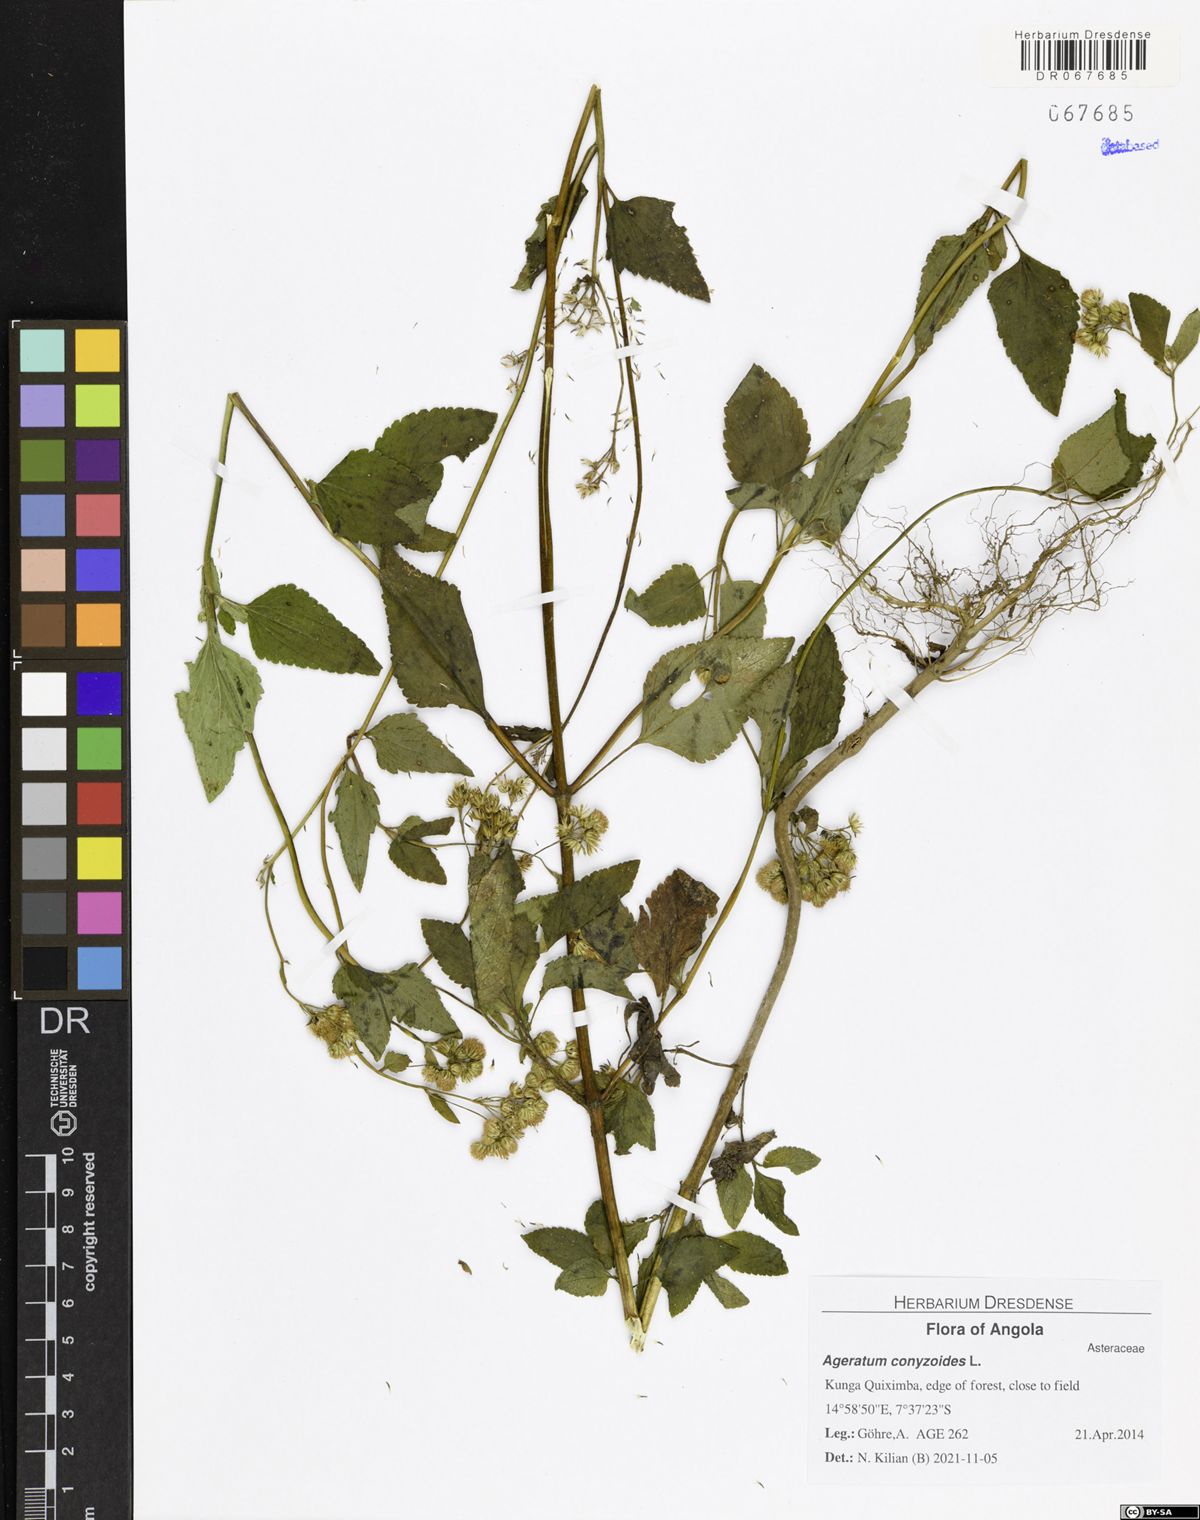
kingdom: Plantae
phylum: Tracheophyta
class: Magnoliopsida
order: Asterales
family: Asteraceae
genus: Ageratum
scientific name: Ageratum conyzoides
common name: Tropical whiteweed
